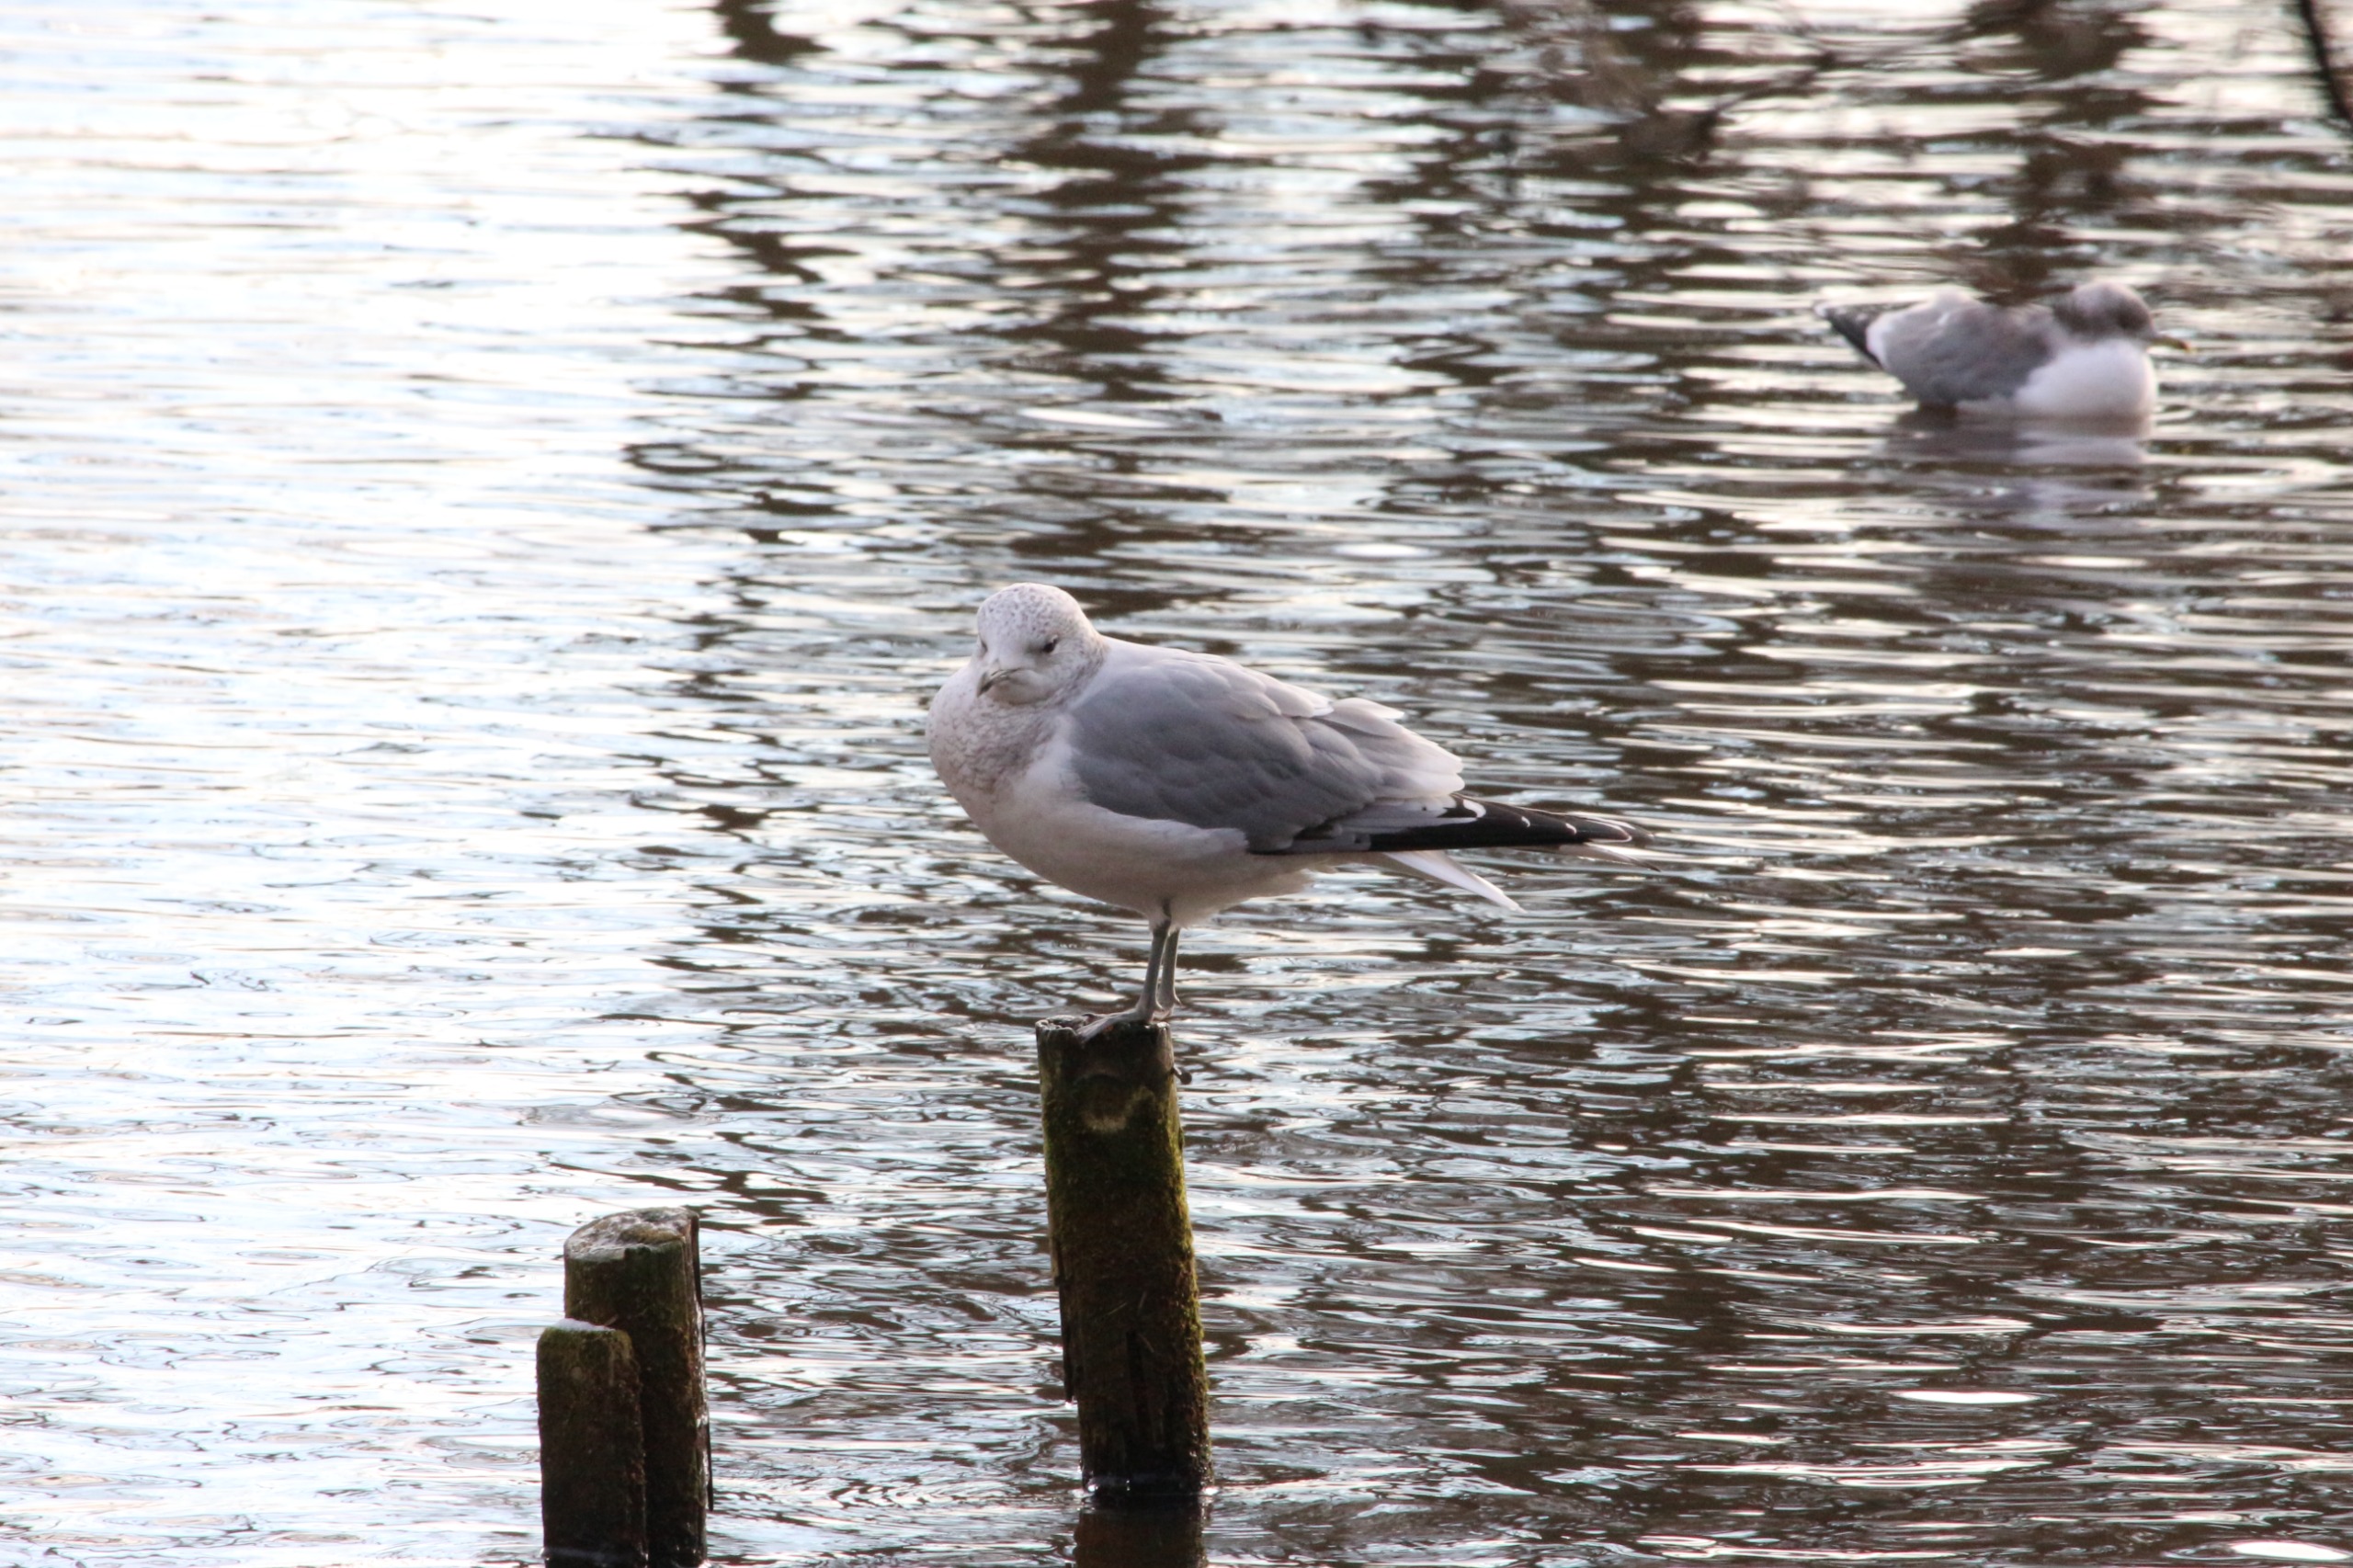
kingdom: Animalia
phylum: Chordata
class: Aves
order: Charadriiformes
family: Laridae
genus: Larus
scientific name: Larus canus
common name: Stormmåge
